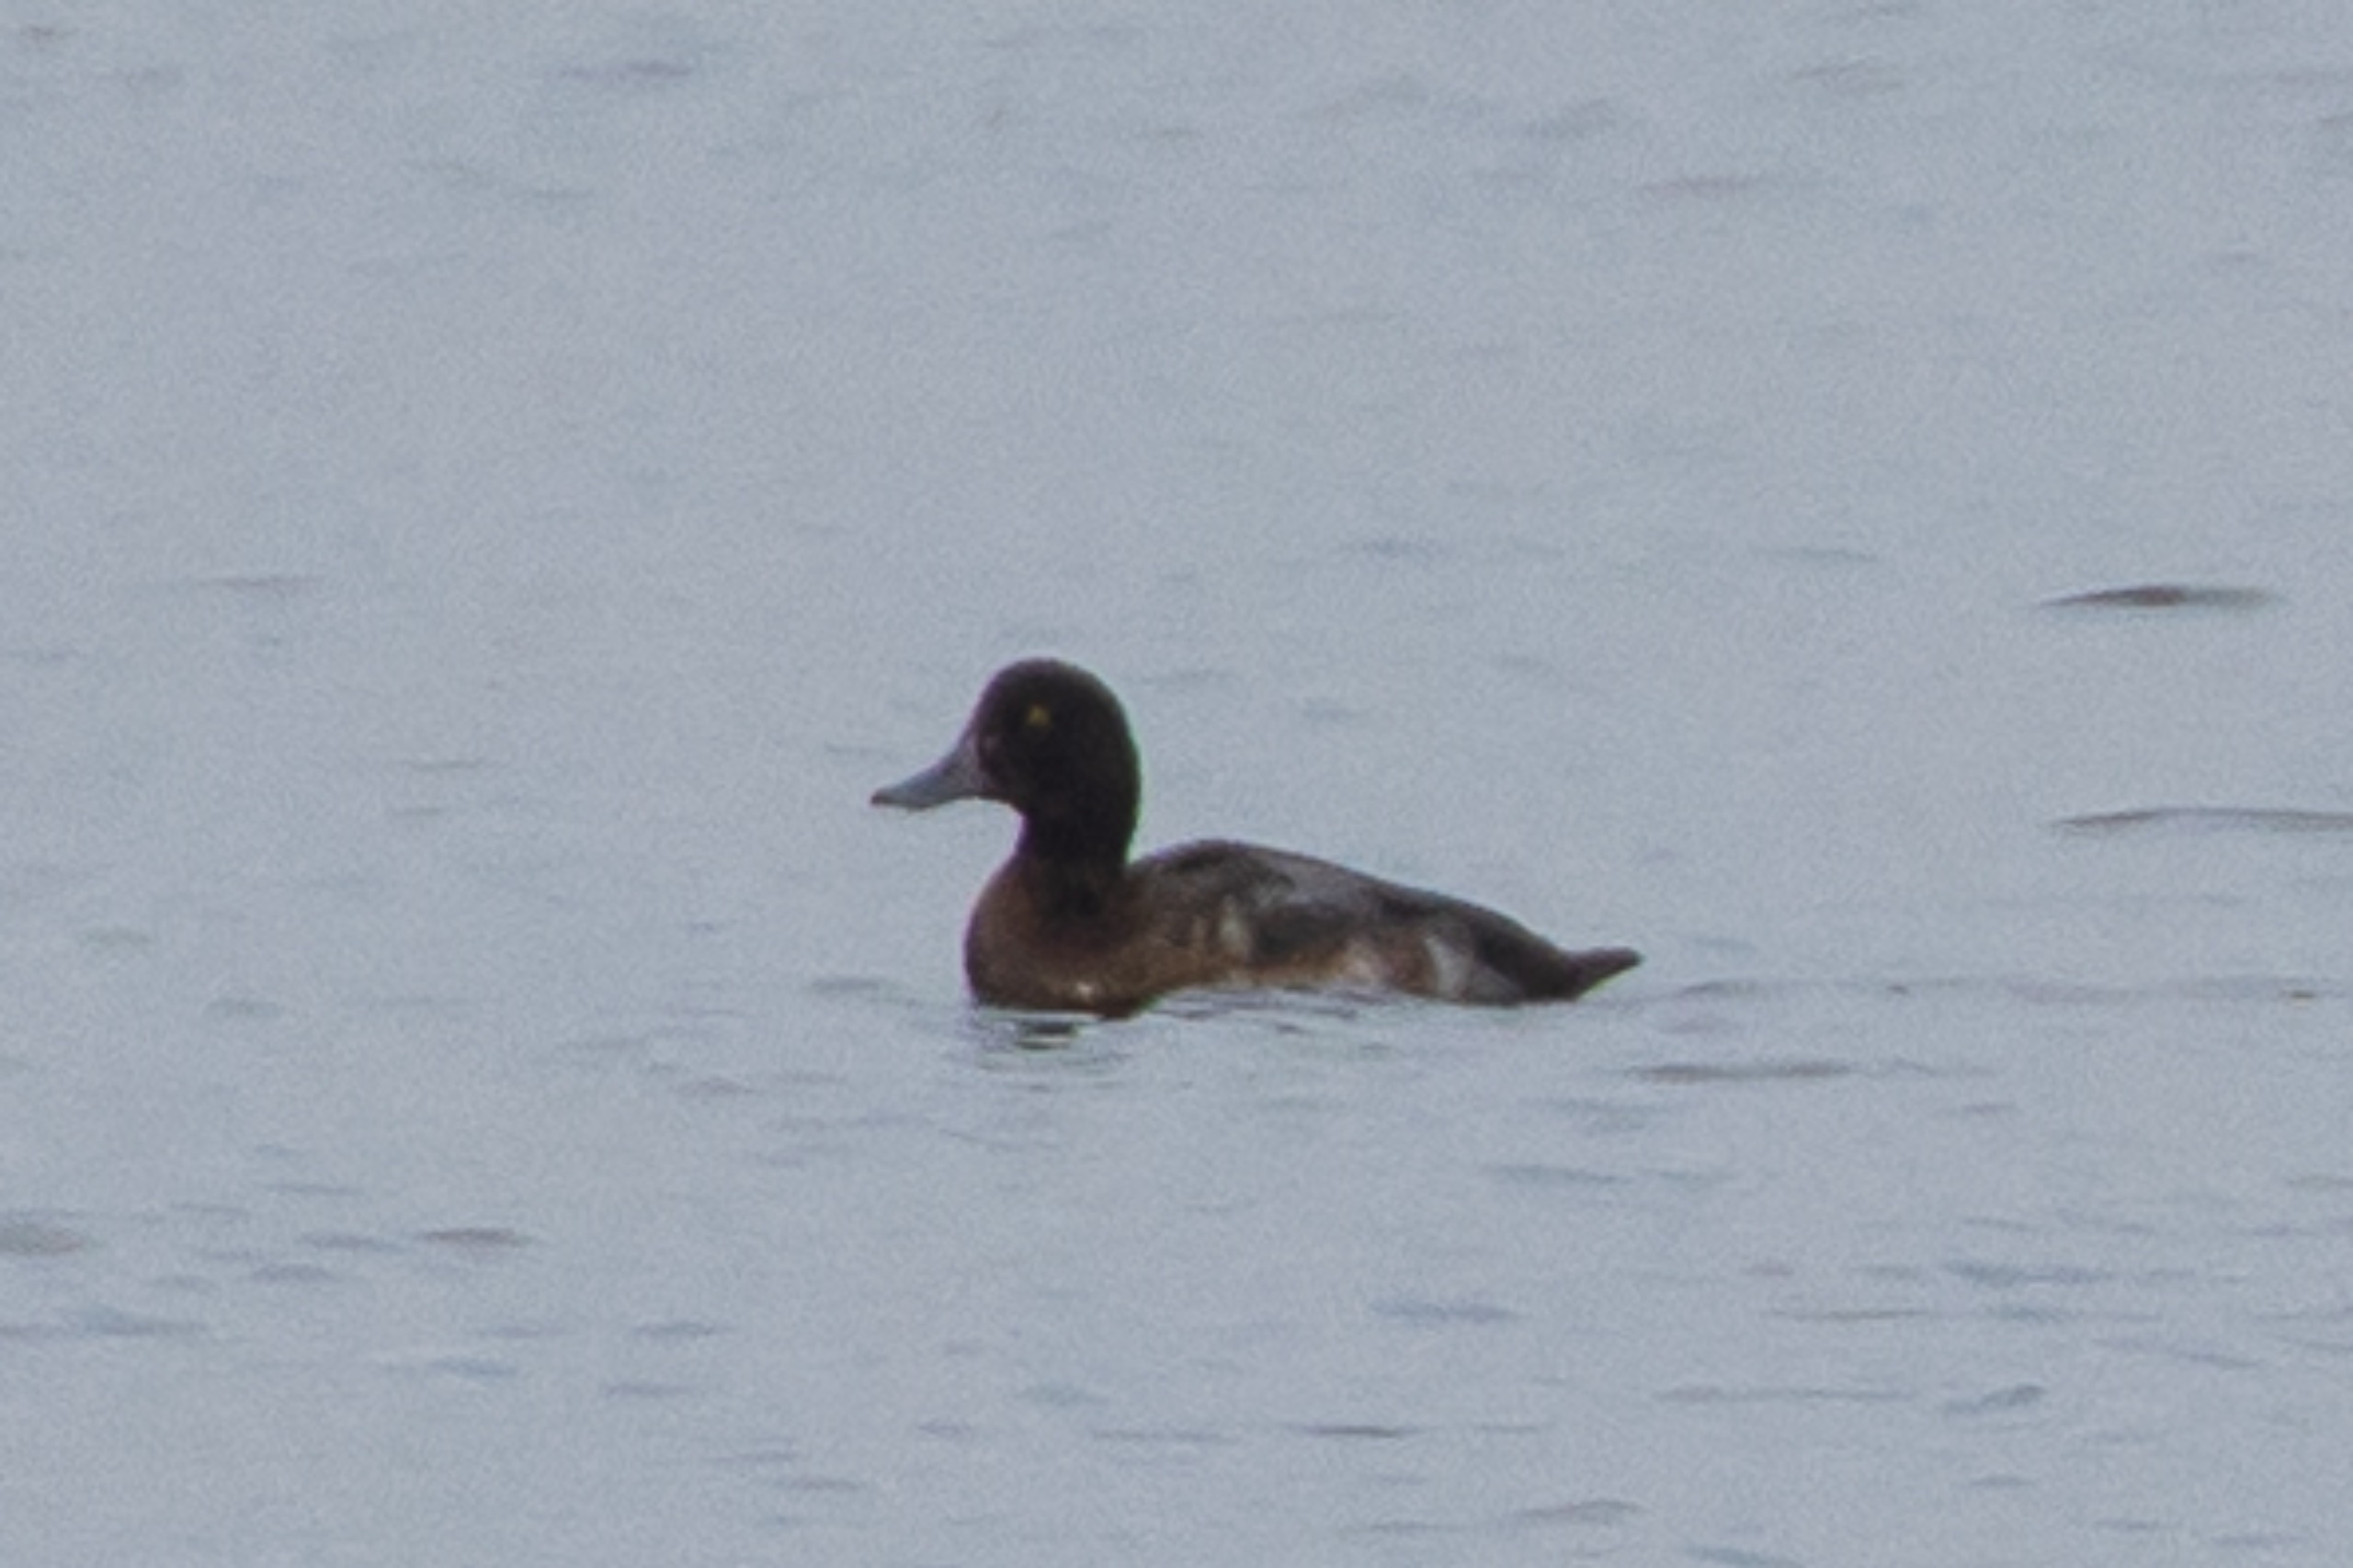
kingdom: Animalia
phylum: Chordata
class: Aves
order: Anseriformes
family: Anatidae
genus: Aythya
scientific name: Aythya marila
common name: Bjergand
